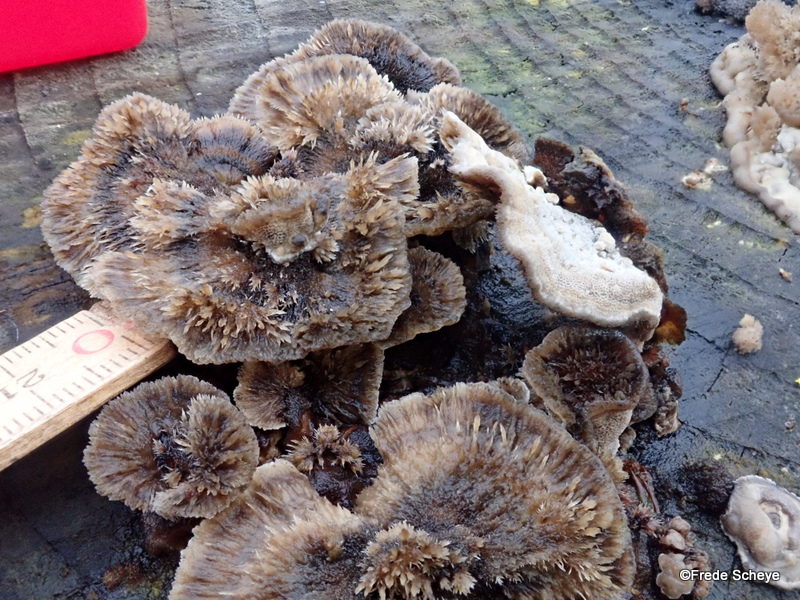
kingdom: Fungi
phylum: Basidiomycota
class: Agaricomycetes
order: Polyporales
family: Phanerochaetaceae
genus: Bjerkandera
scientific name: Bjerkandera adusta
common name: sveden sodporesvamp
